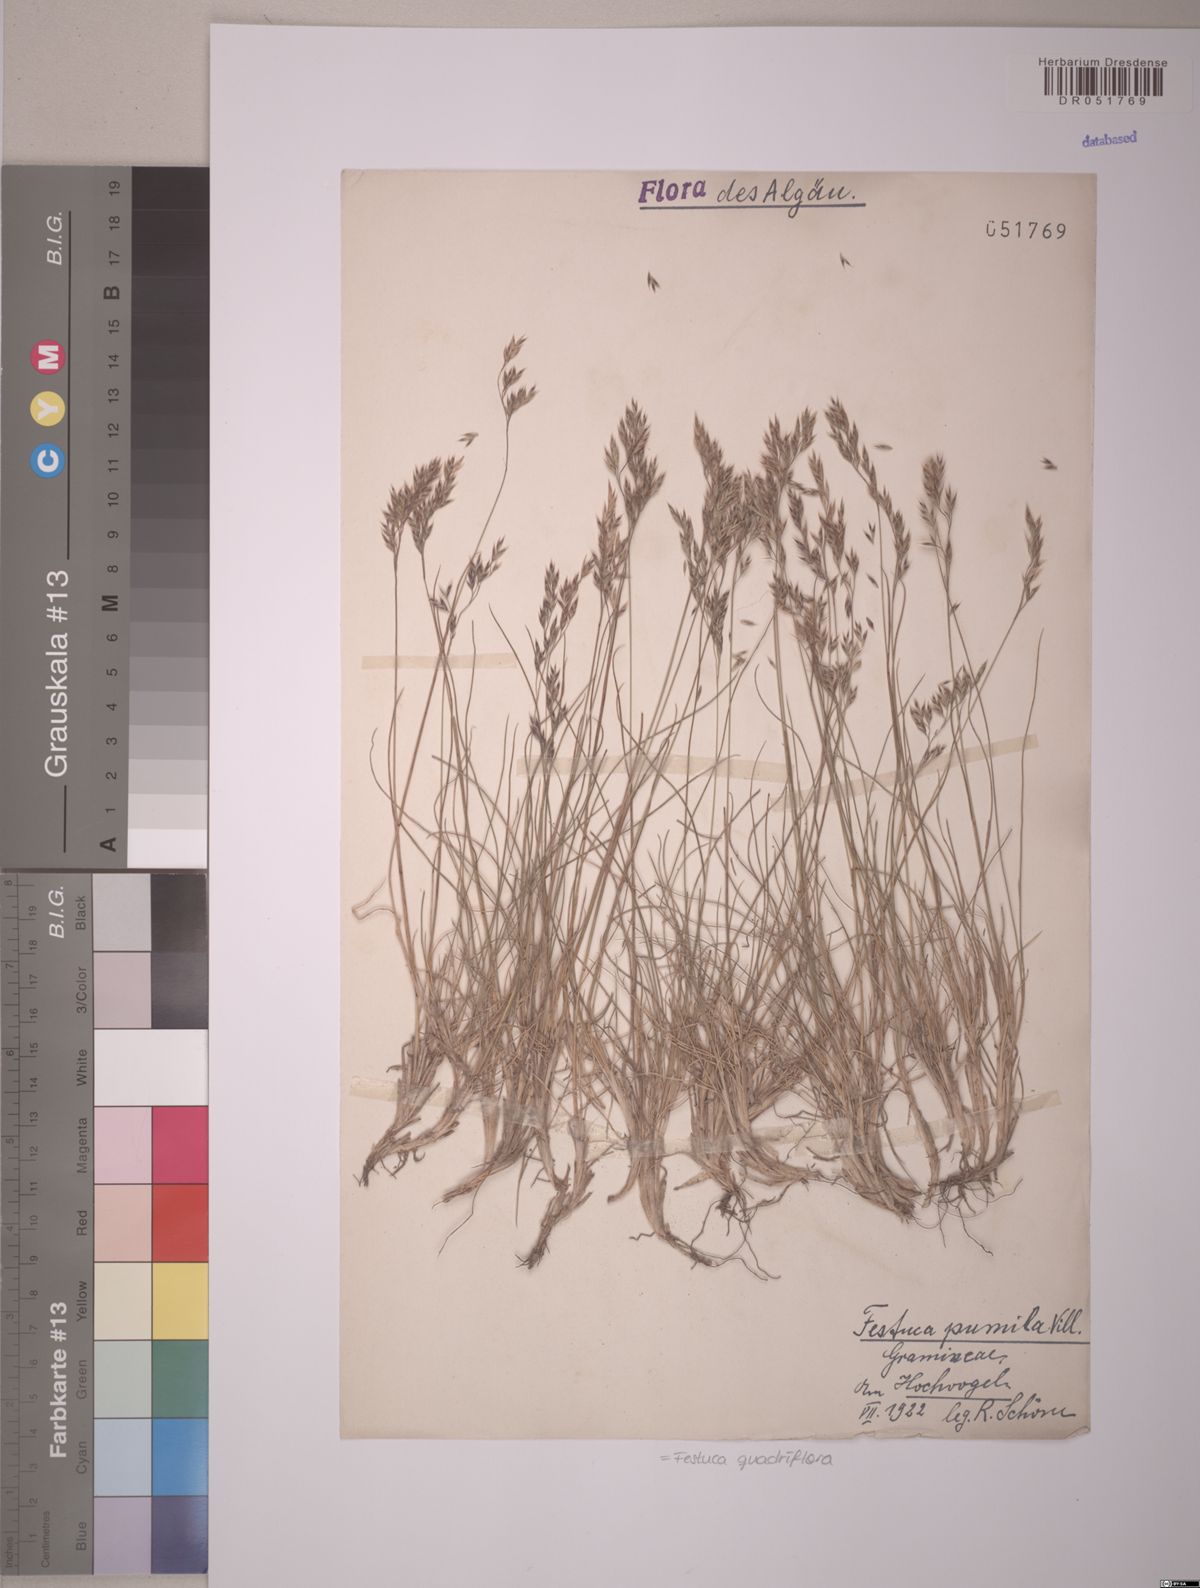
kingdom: Plantae
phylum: Tracheophyta
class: Liliopsida
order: Poales
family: Poaceae
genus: Festuca
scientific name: Festuca quadriflora
